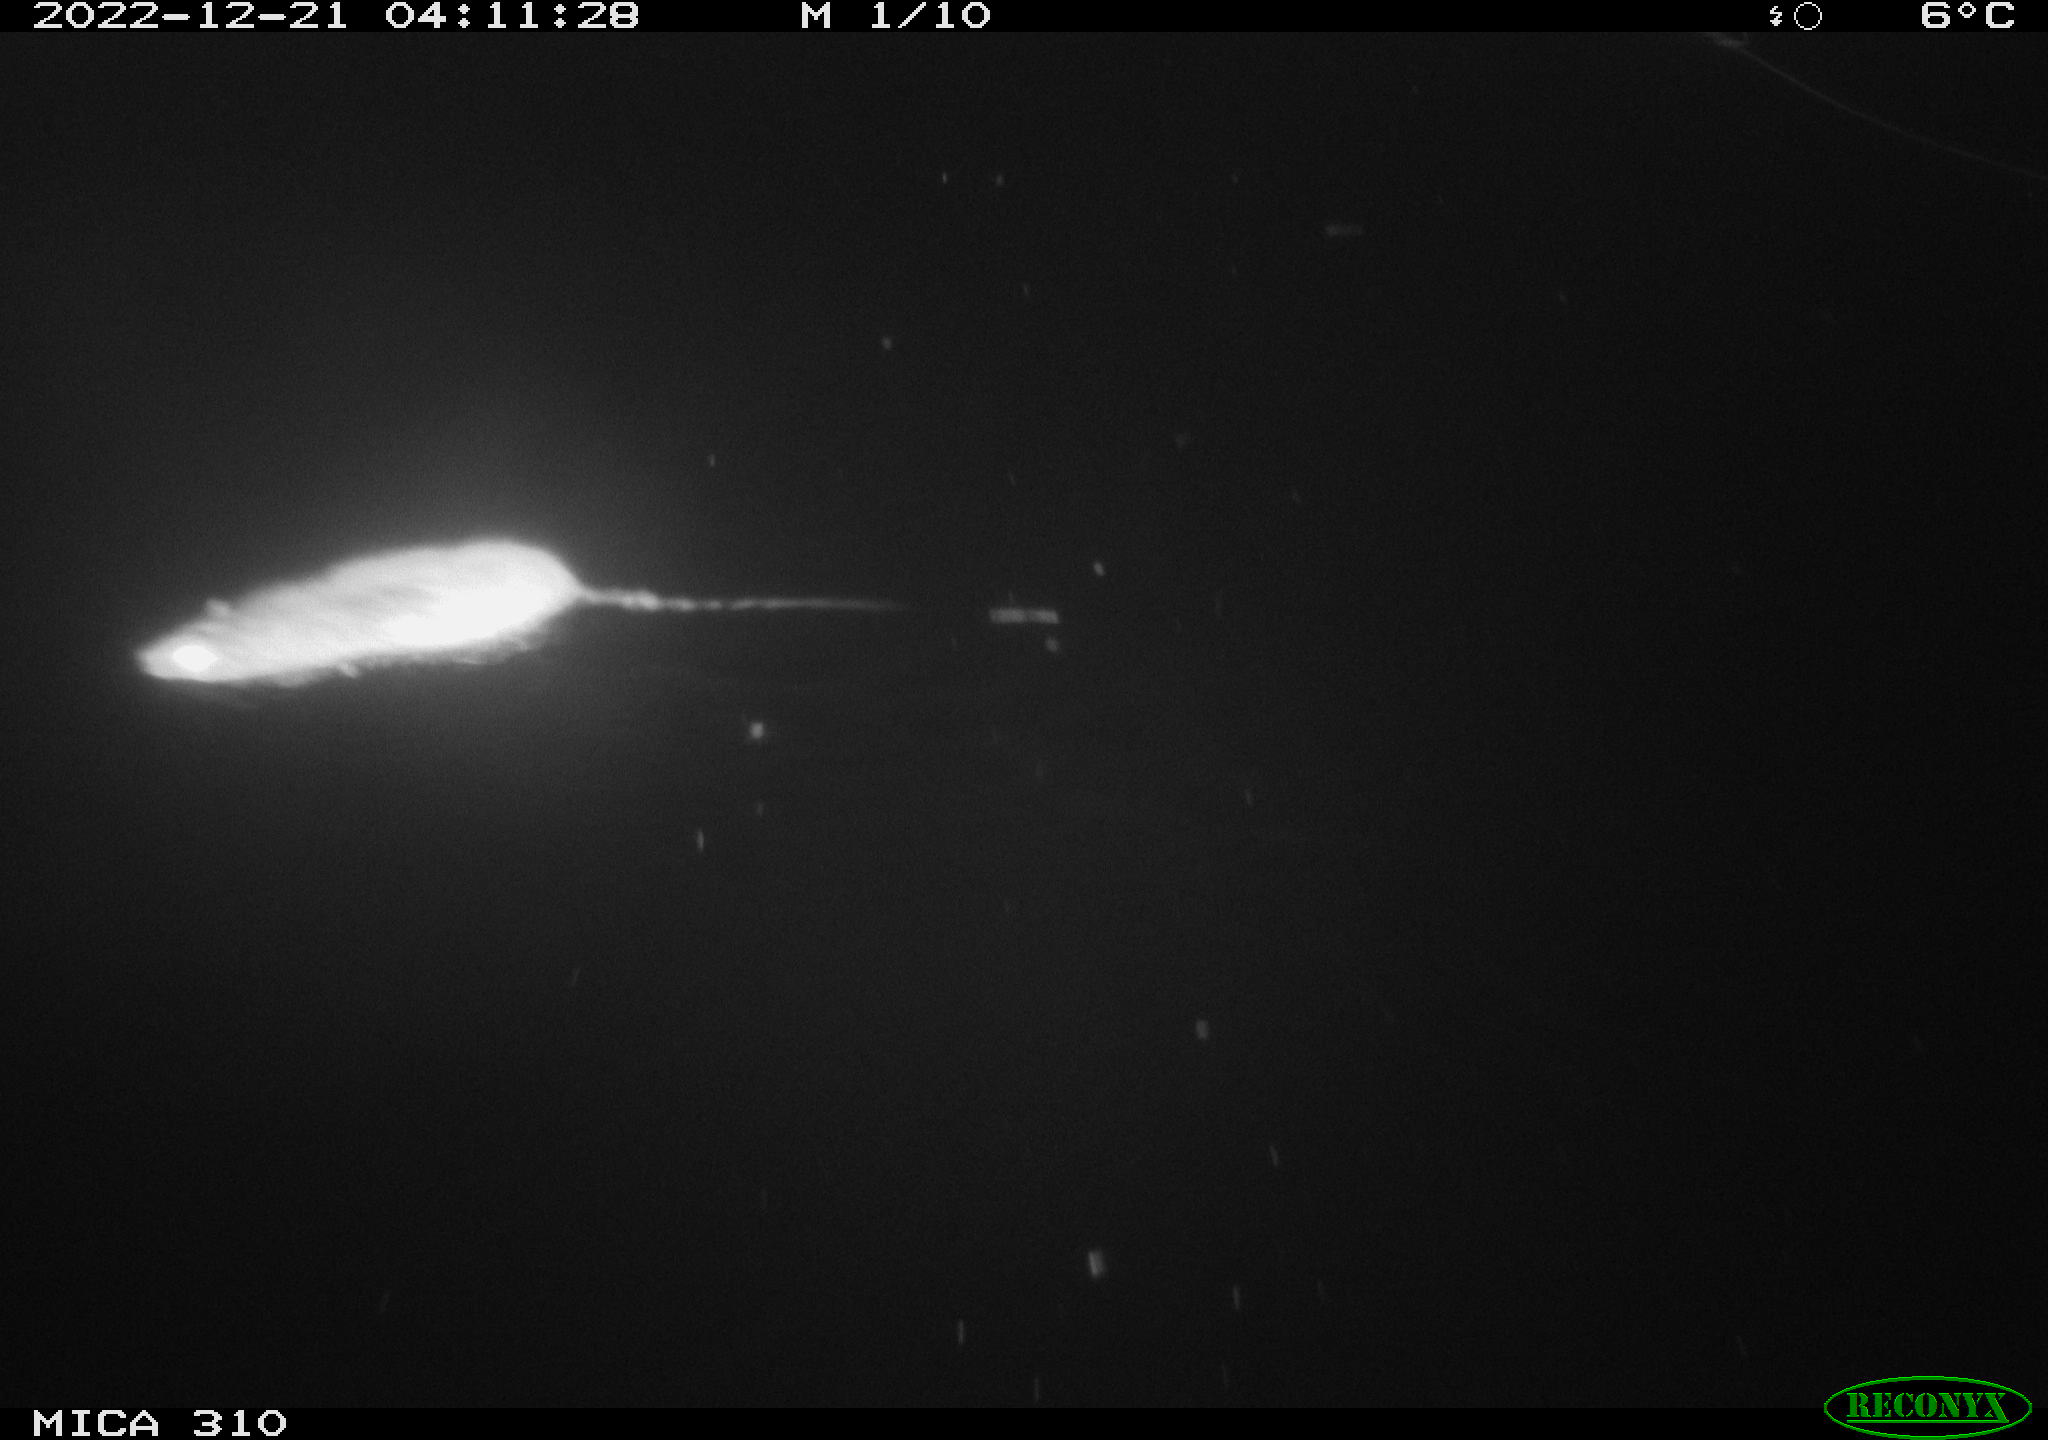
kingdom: Animalia
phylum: Chordata
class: Mammalia
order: Rodentia
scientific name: Rodentia
